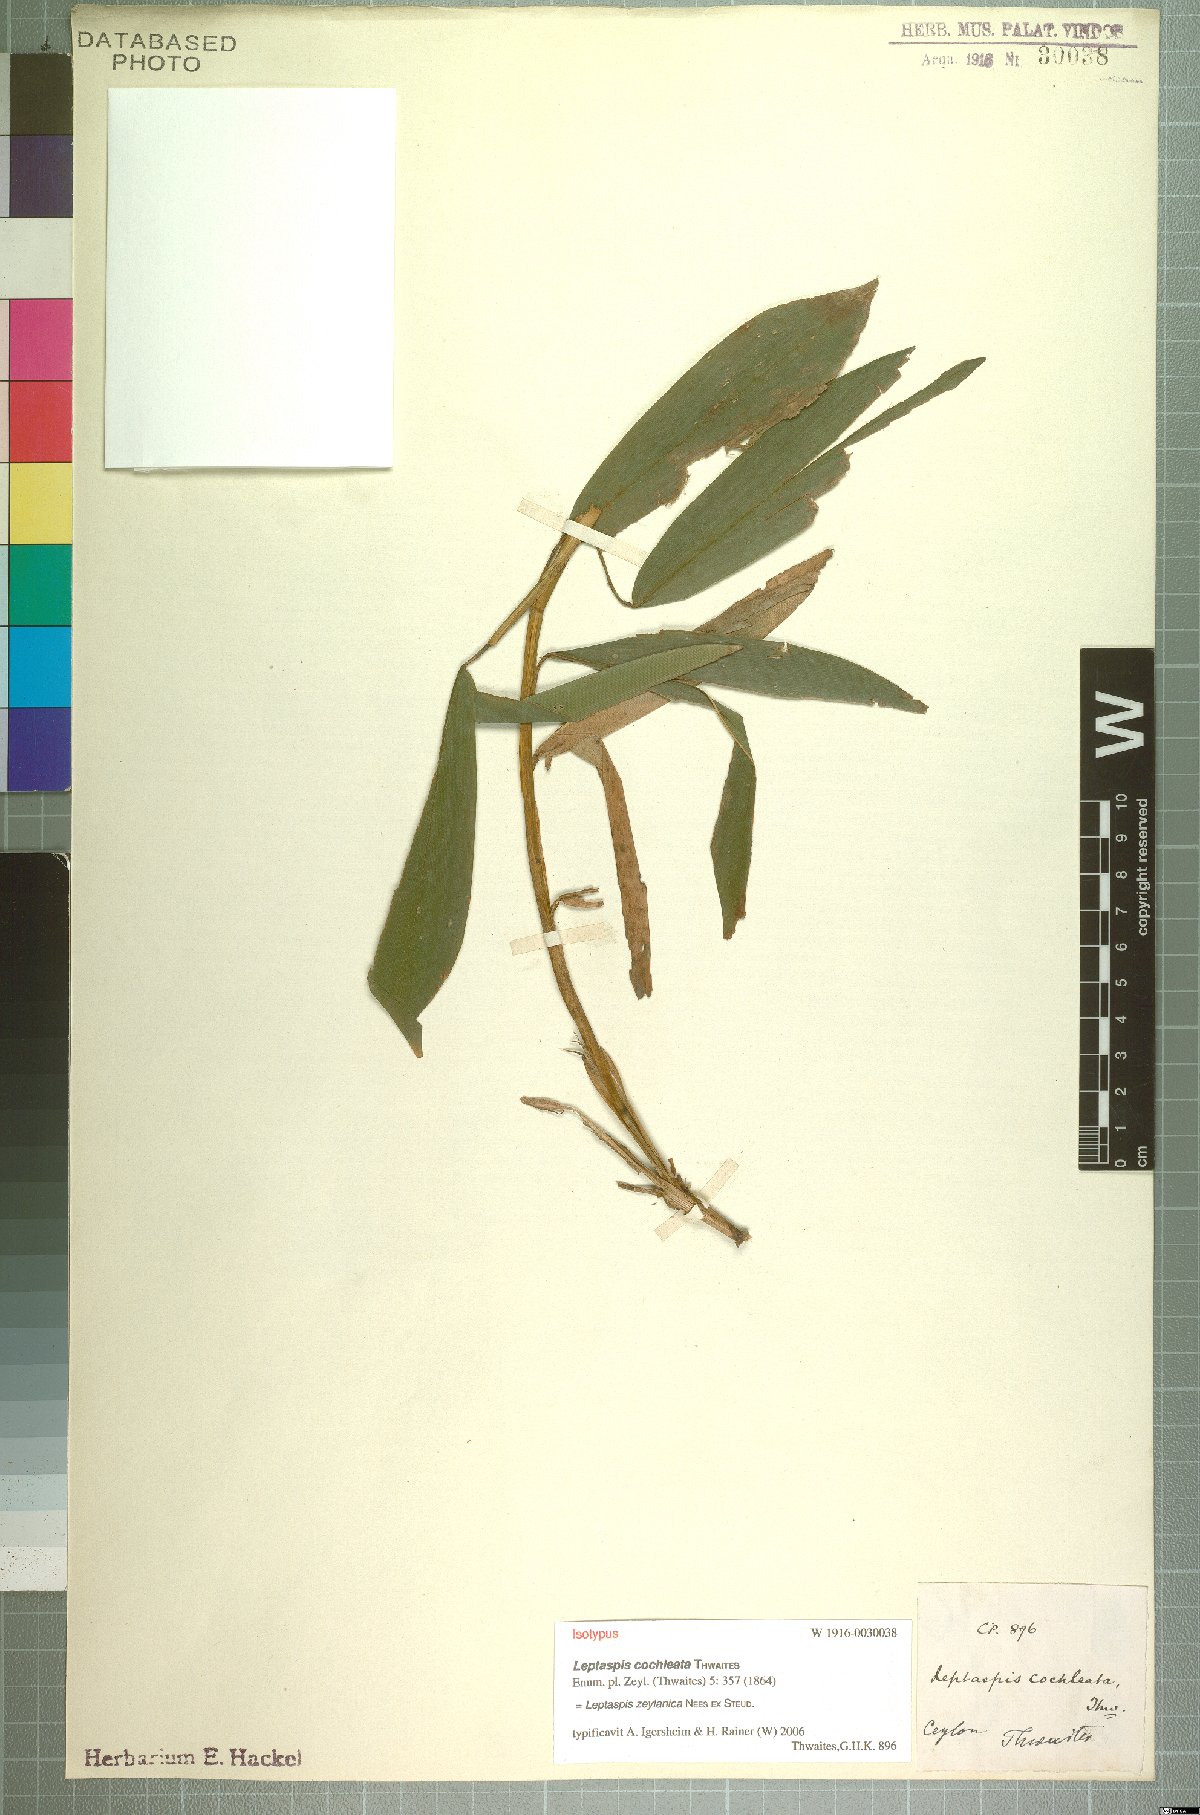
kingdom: Plantae
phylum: Tracheophyta
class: Liliopsida
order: Poales
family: Poaceae
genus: Leptaspis
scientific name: Leptaspis zeylanica
